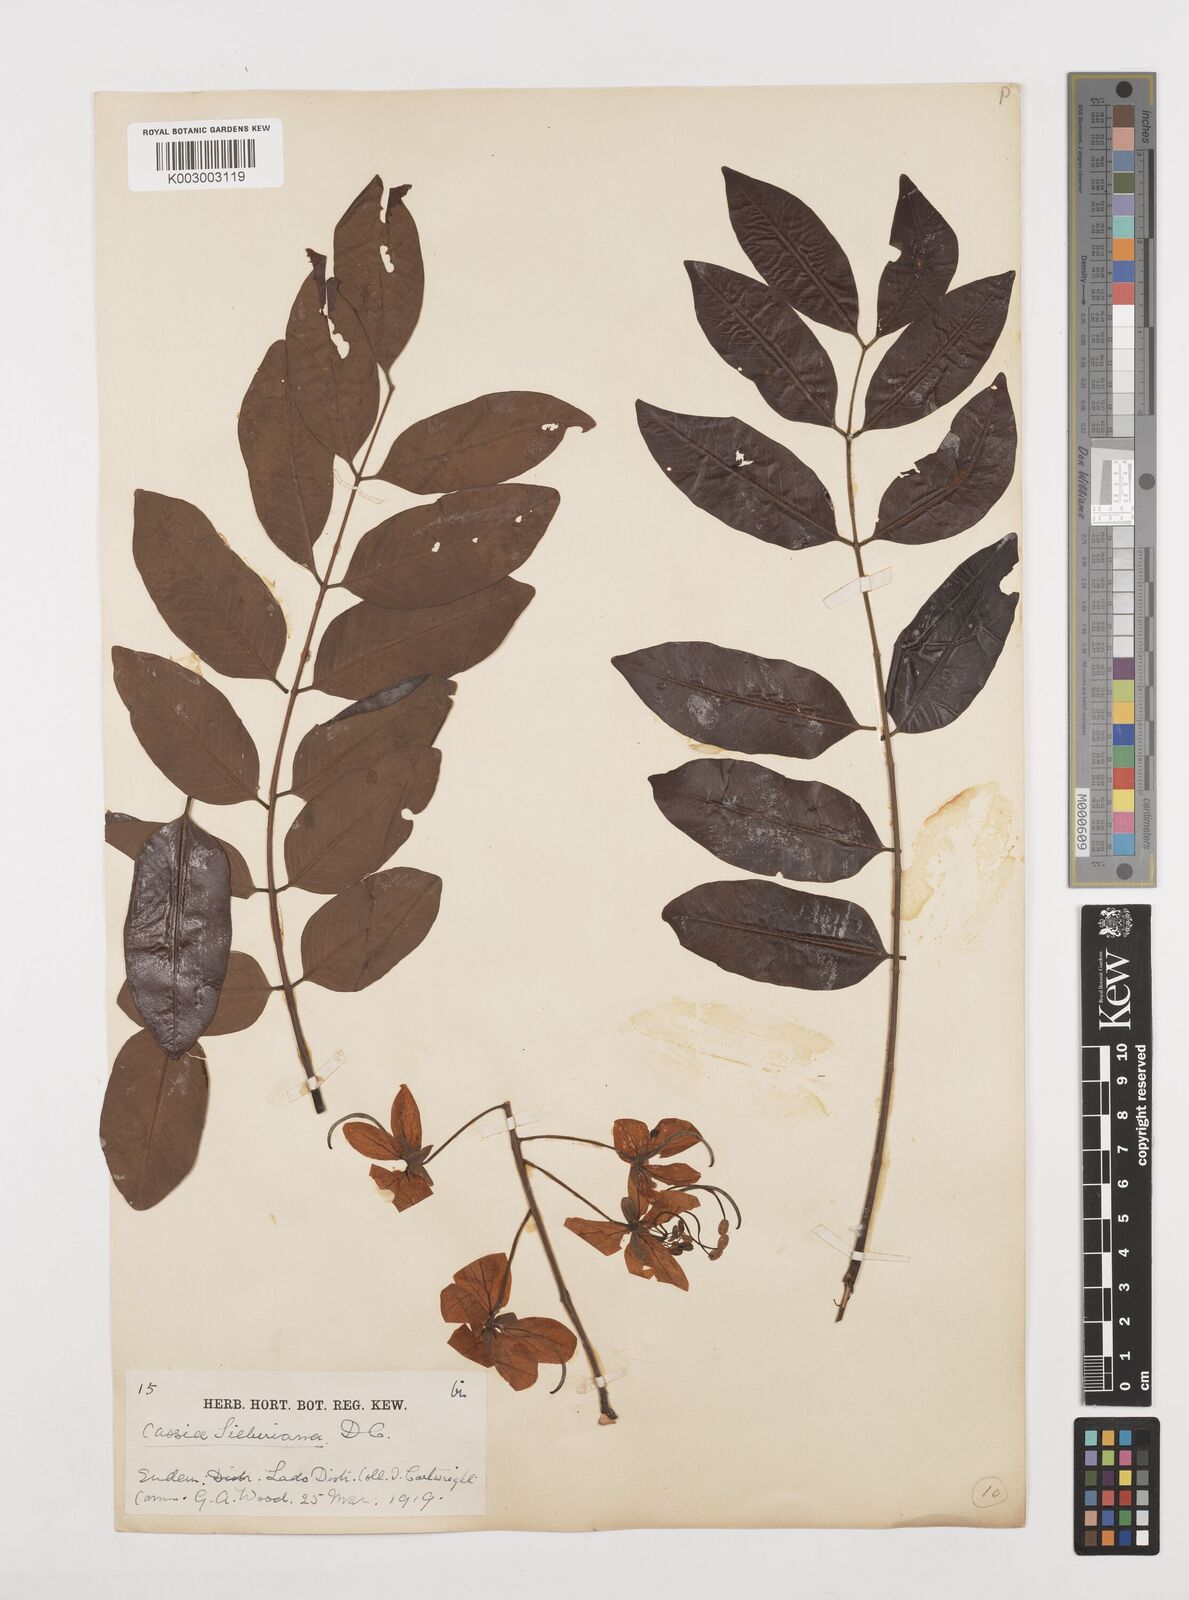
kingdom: Plantae
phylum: Tracheophyta
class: Magnoliopsida
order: Fabales
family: Fabaceae
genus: Cassia
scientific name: Cassia sieberiana
